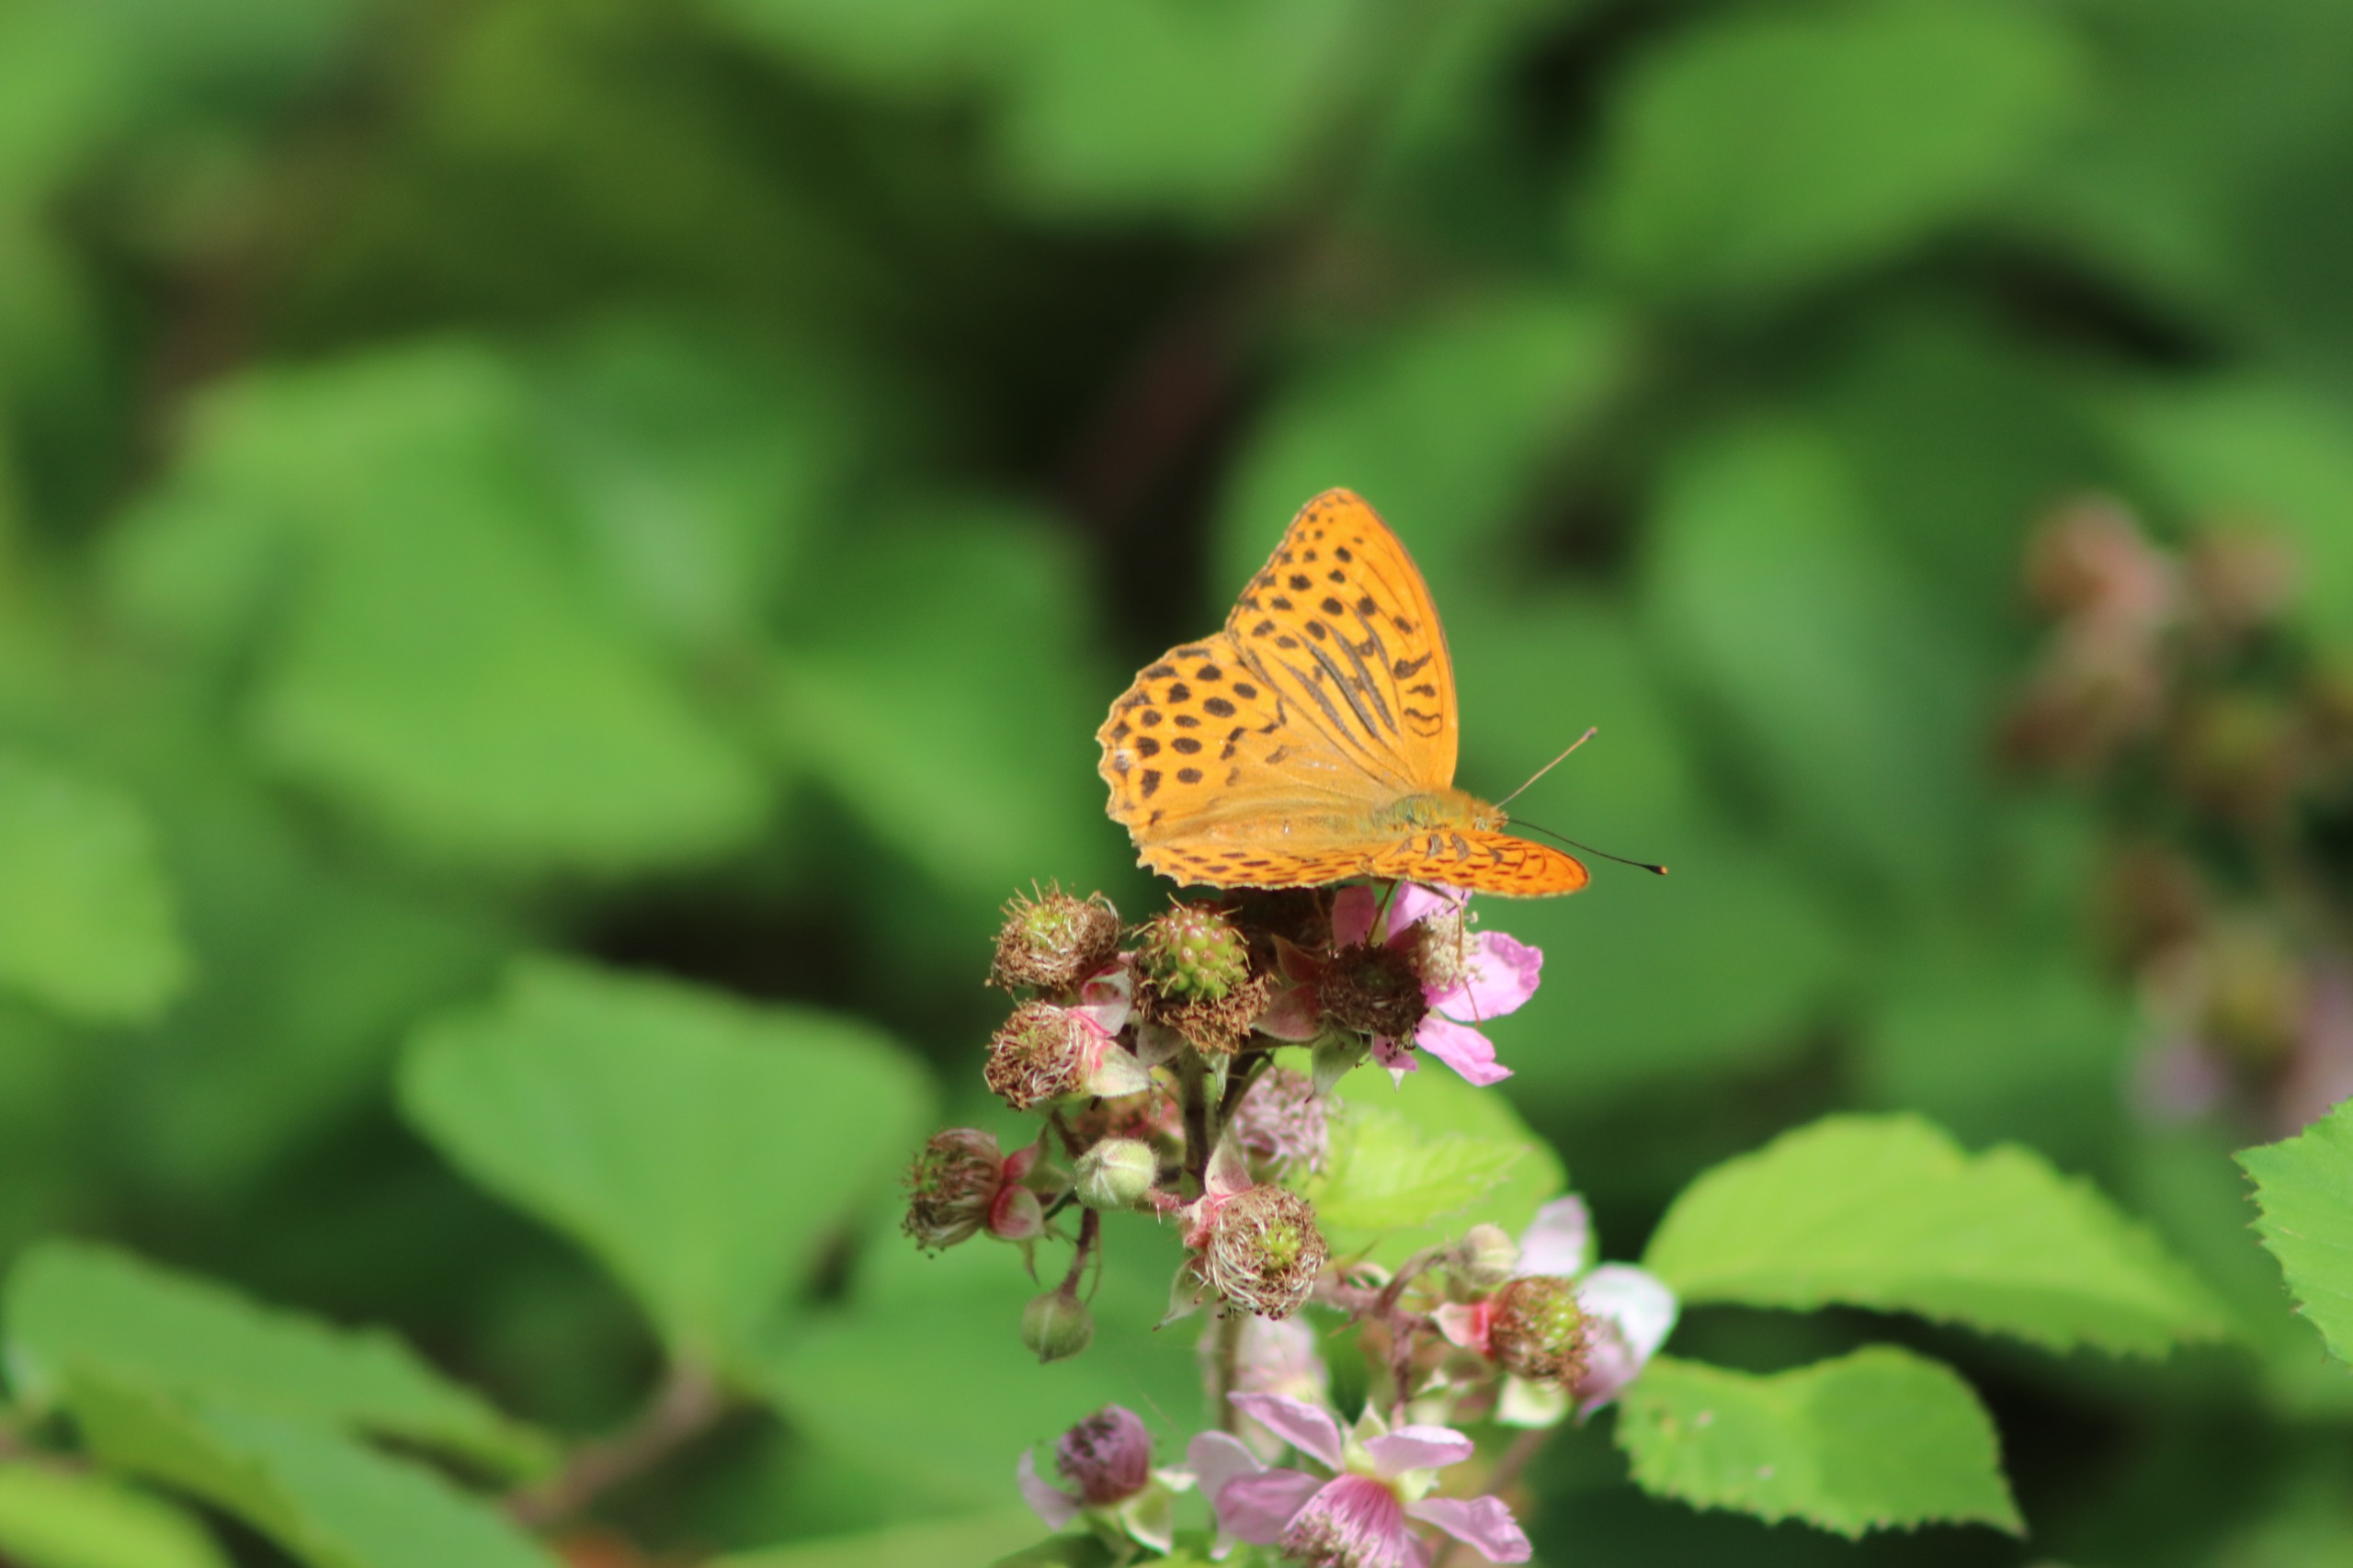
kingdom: Animalia
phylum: Arthropoda
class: Insecta
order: Lepidoptera
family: Nymphalidae
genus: Argynnis
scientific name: Argynnis paphia
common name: Kejserkåbe
